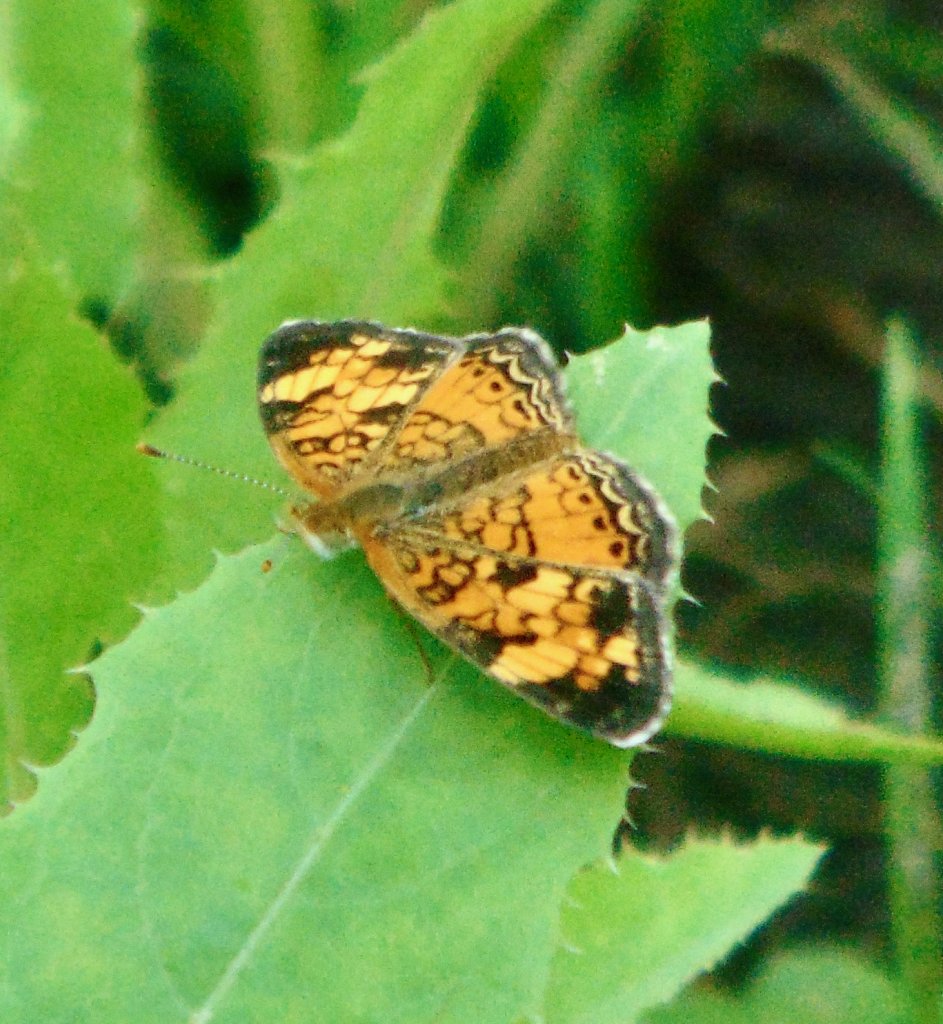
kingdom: Animalia
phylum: Arthropoda
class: Insecta
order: Lepidoptera
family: Nymphalidae
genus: Phyciodes
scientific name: Phyciodes tharos
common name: Pearl Crescent
